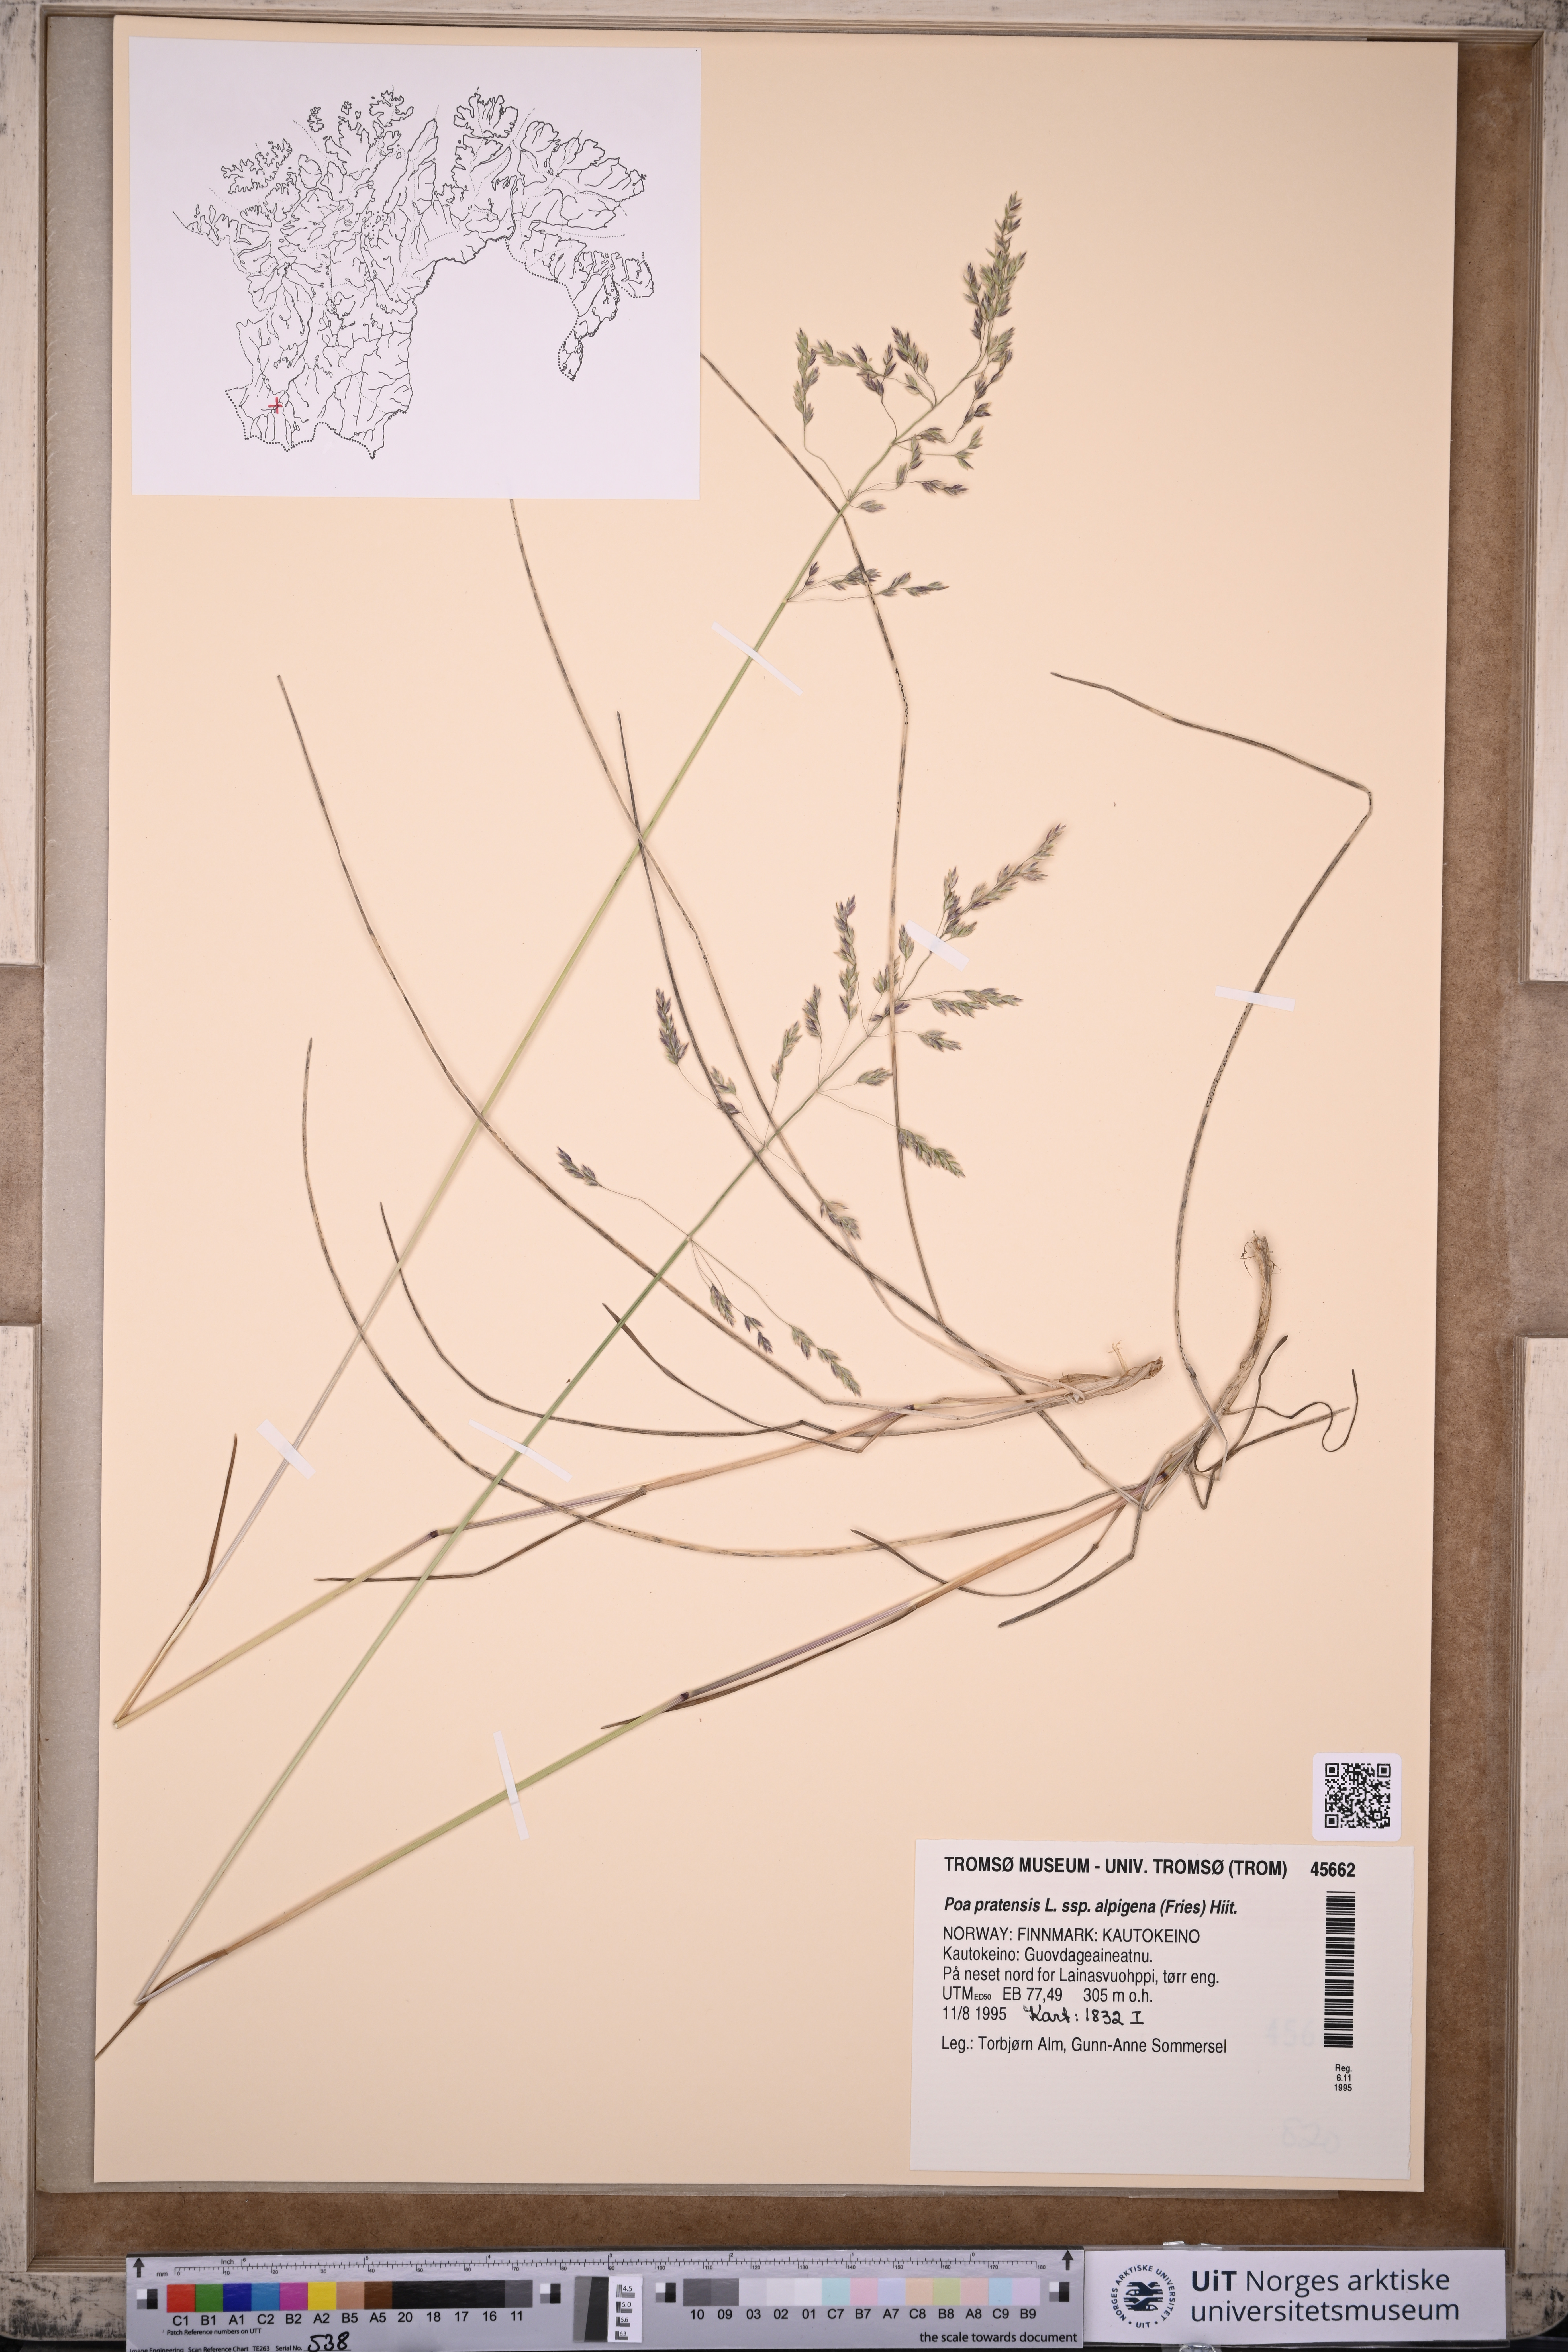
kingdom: Plantae
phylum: Tracheophyta
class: Liliopsida
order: Poales
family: Poaceae
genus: Poa
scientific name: Poa alpigena
